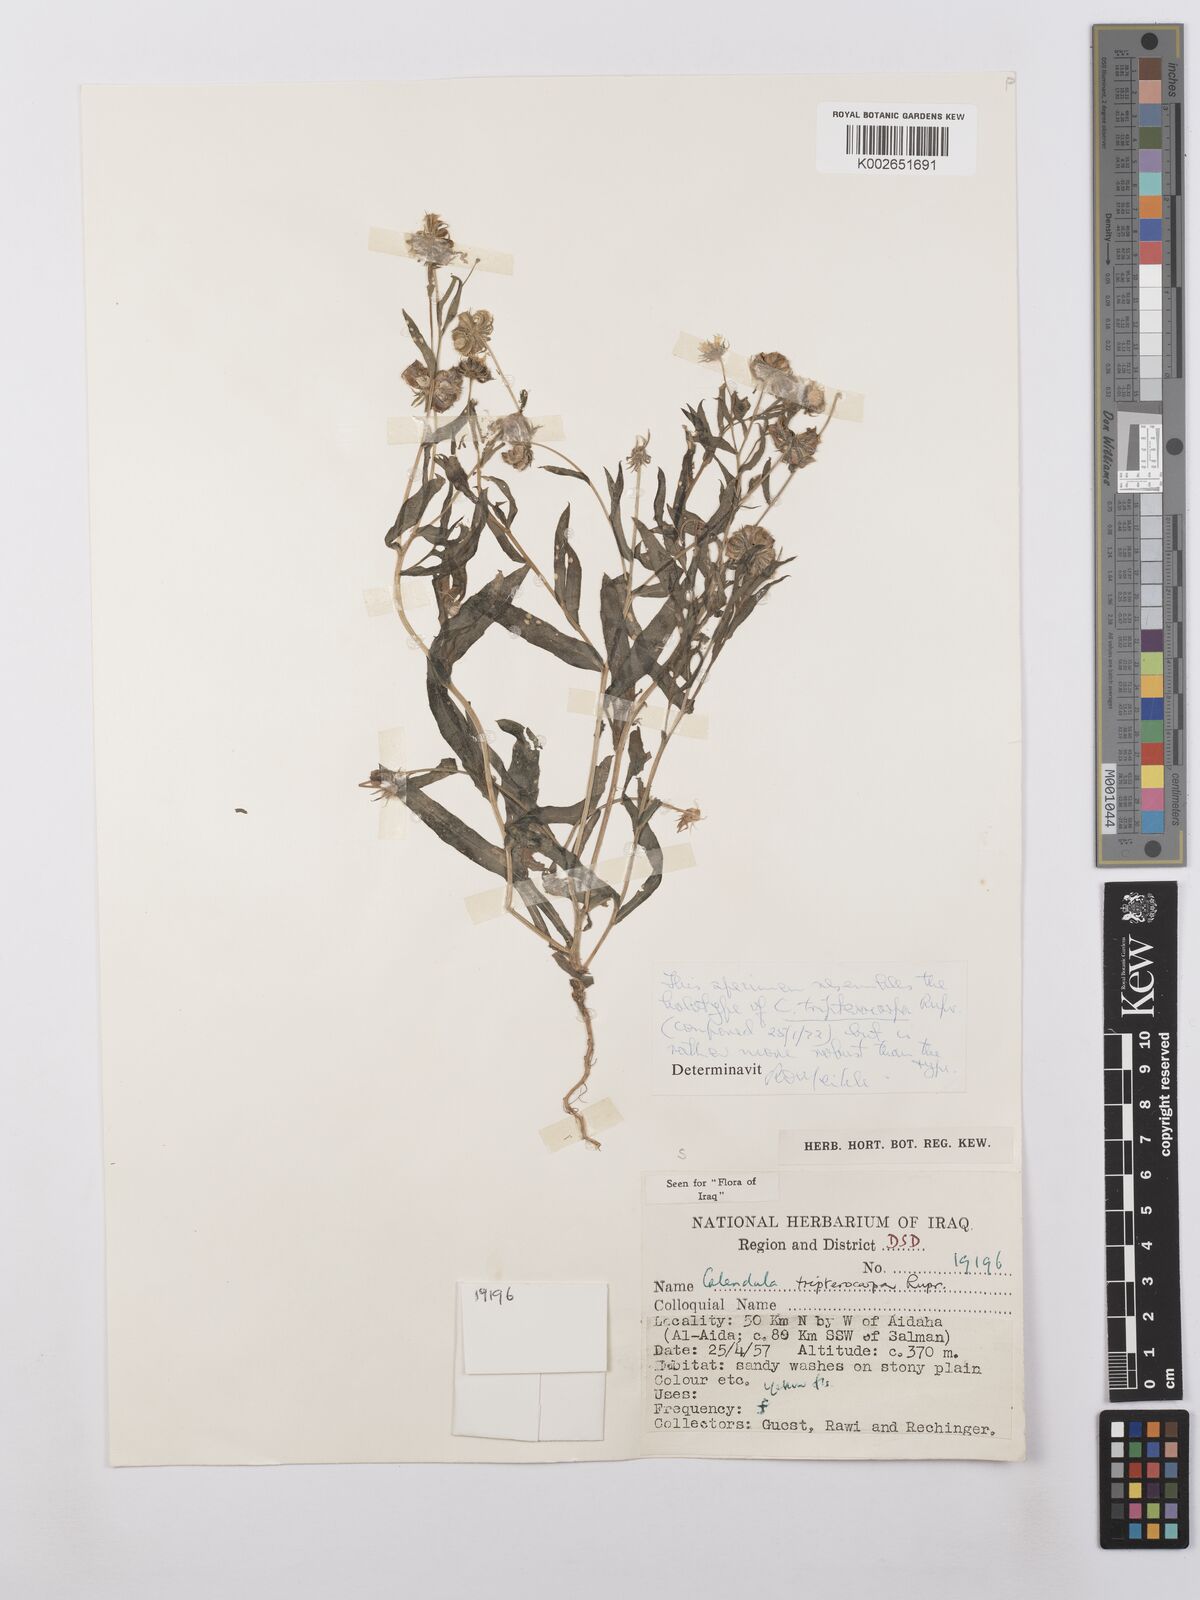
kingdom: Plantae
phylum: Tracheophyta
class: Magnoliopsida
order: Asterales
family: Asteraceae
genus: Calendula
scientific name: Calendula tripterocarpa
